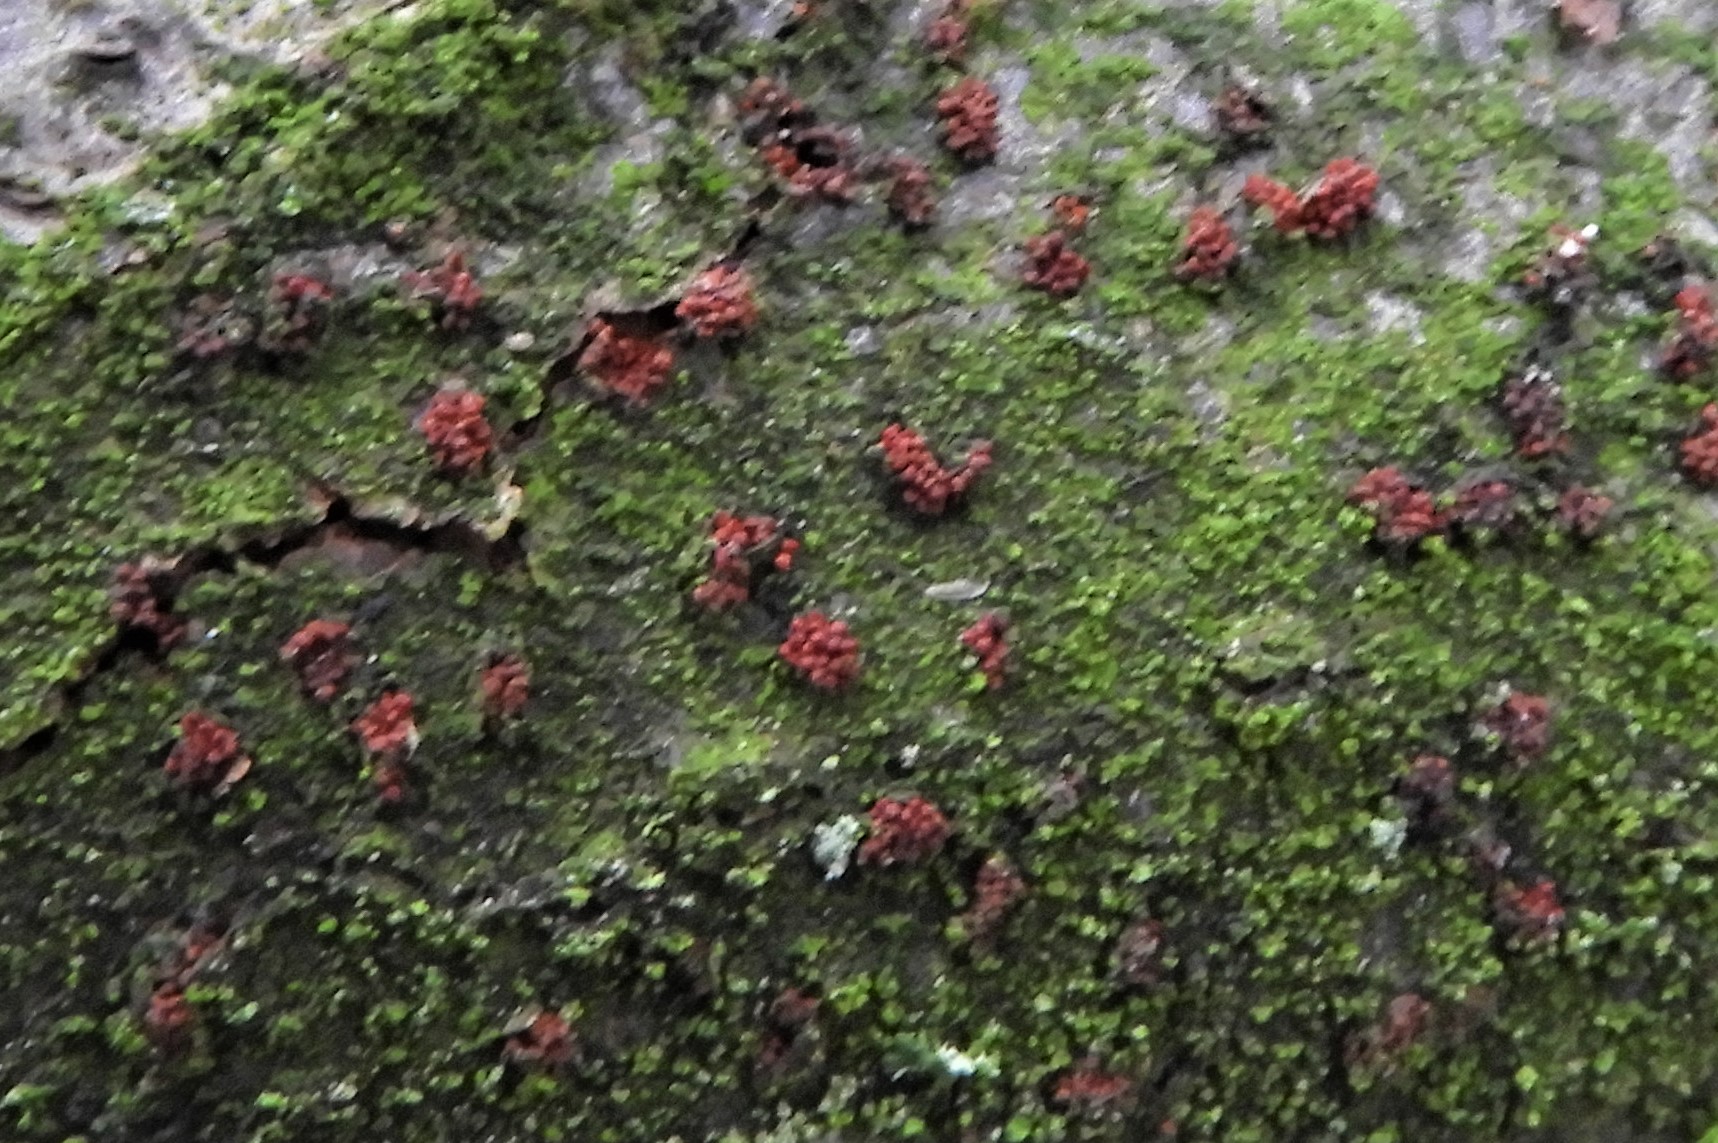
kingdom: Fungi
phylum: Ascomycota
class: Sordariomycetes
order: Hypocreales
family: Nectriaceae
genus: Neonectria
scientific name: Neonectria coccinea
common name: bøgebark-cinnobersvamp
